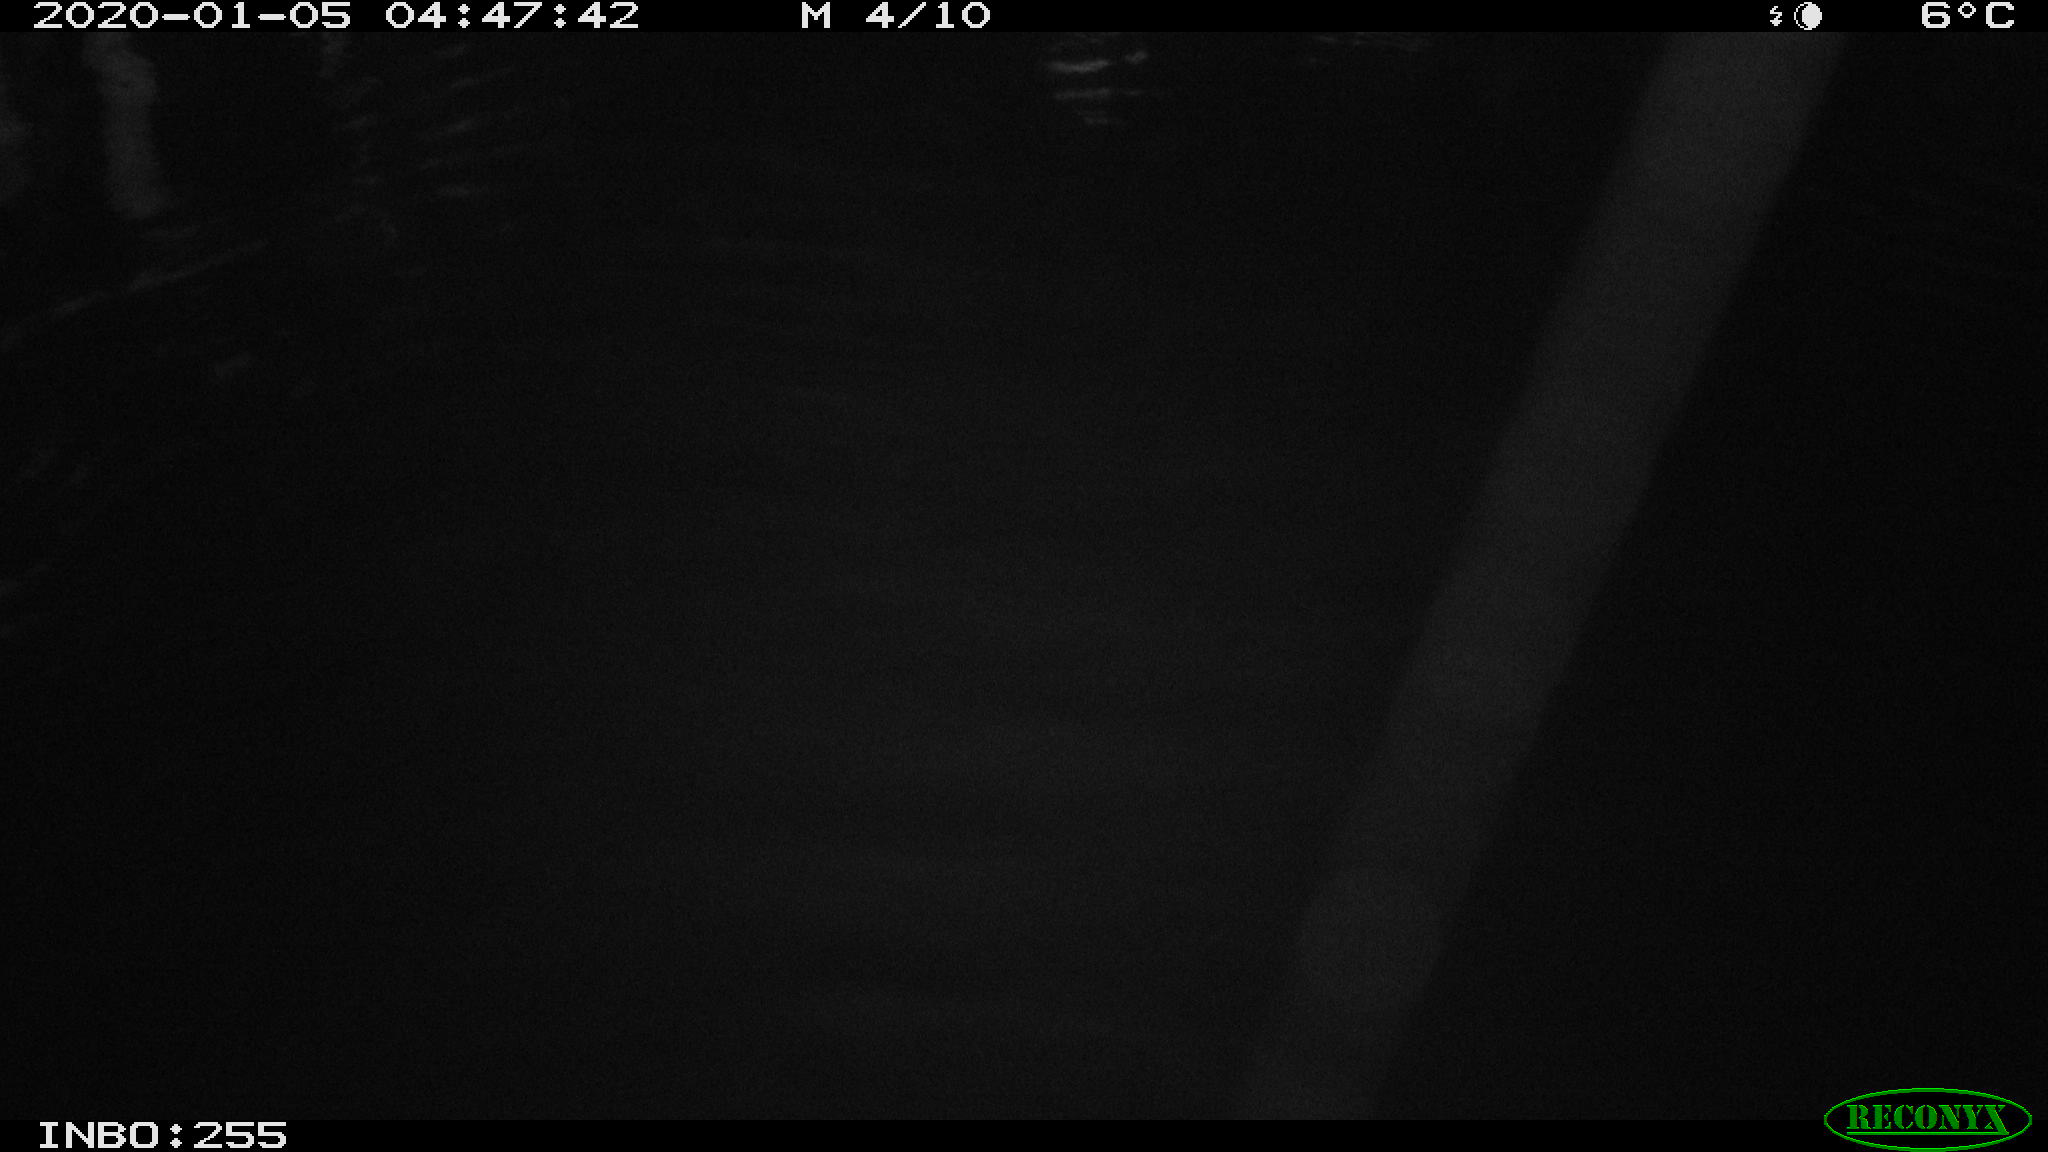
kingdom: Animalia
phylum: Chordata
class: Aves
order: Anseriformes
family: Anatidae
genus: Anas
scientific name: Anas platyrhynchos
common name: Mallard
